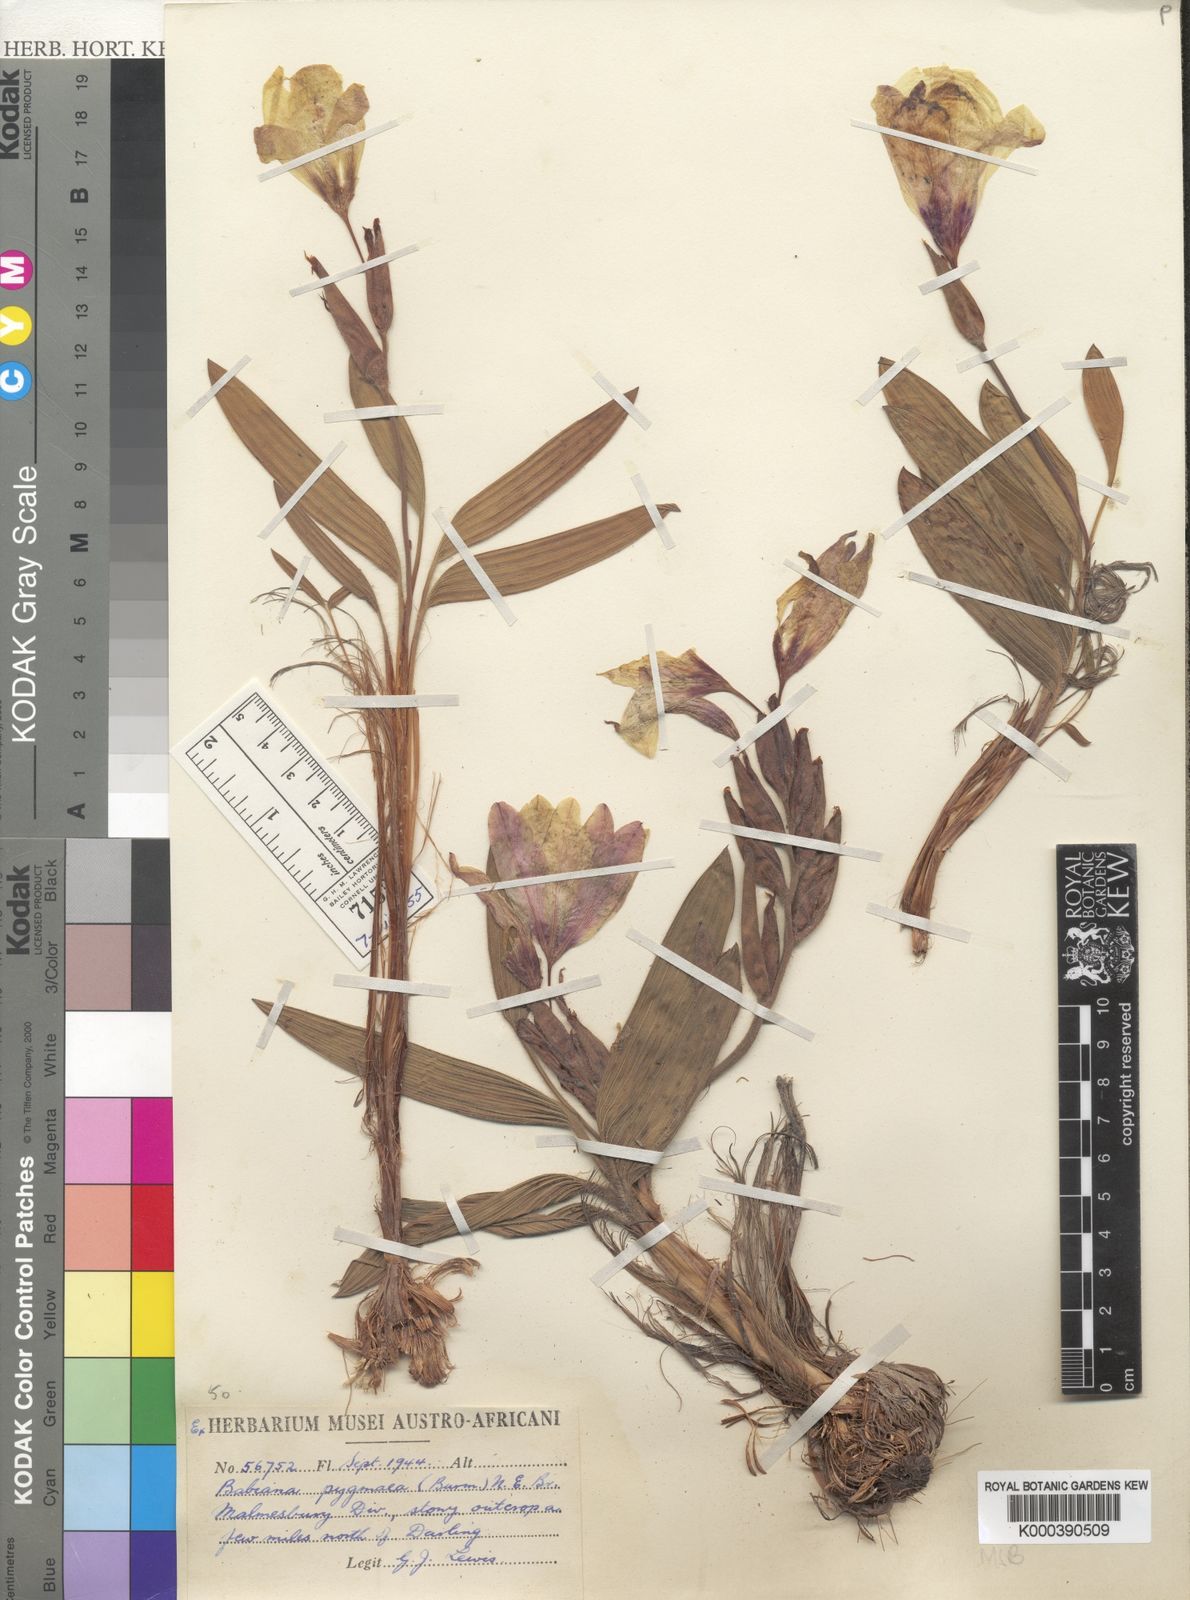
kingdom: Plantae
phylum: Tracheophyta
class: Liliopsida
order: Asparagales
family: Iridaceae
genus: Babiana
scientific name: Babiana pygmaea
